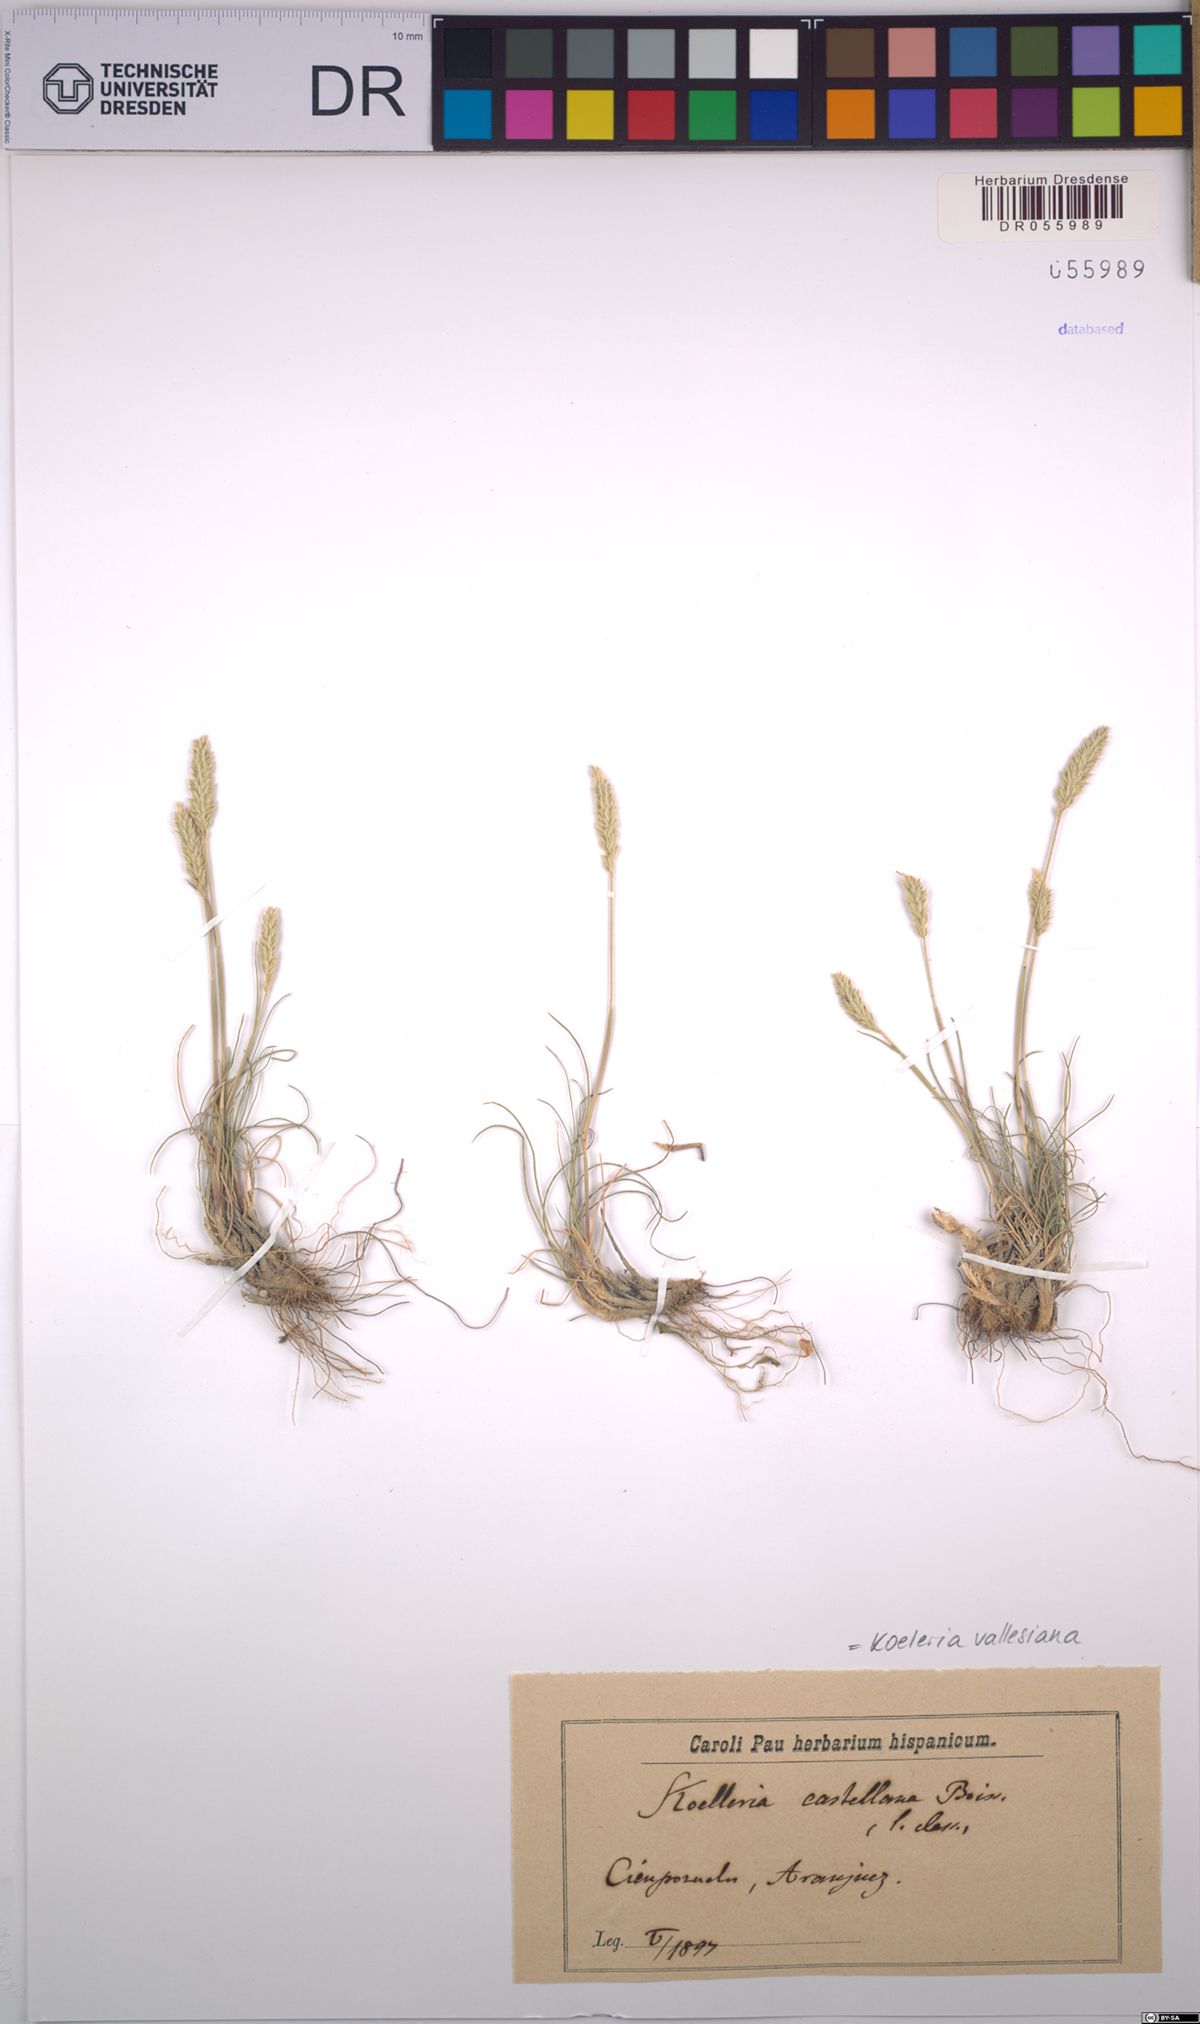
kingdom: Plantae
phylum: Tracheophyta
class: Liliopsida
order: Poales
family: Poaceae
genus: Koeleria
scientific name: Koeleria vallesiana
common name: Somerset hair-grass
